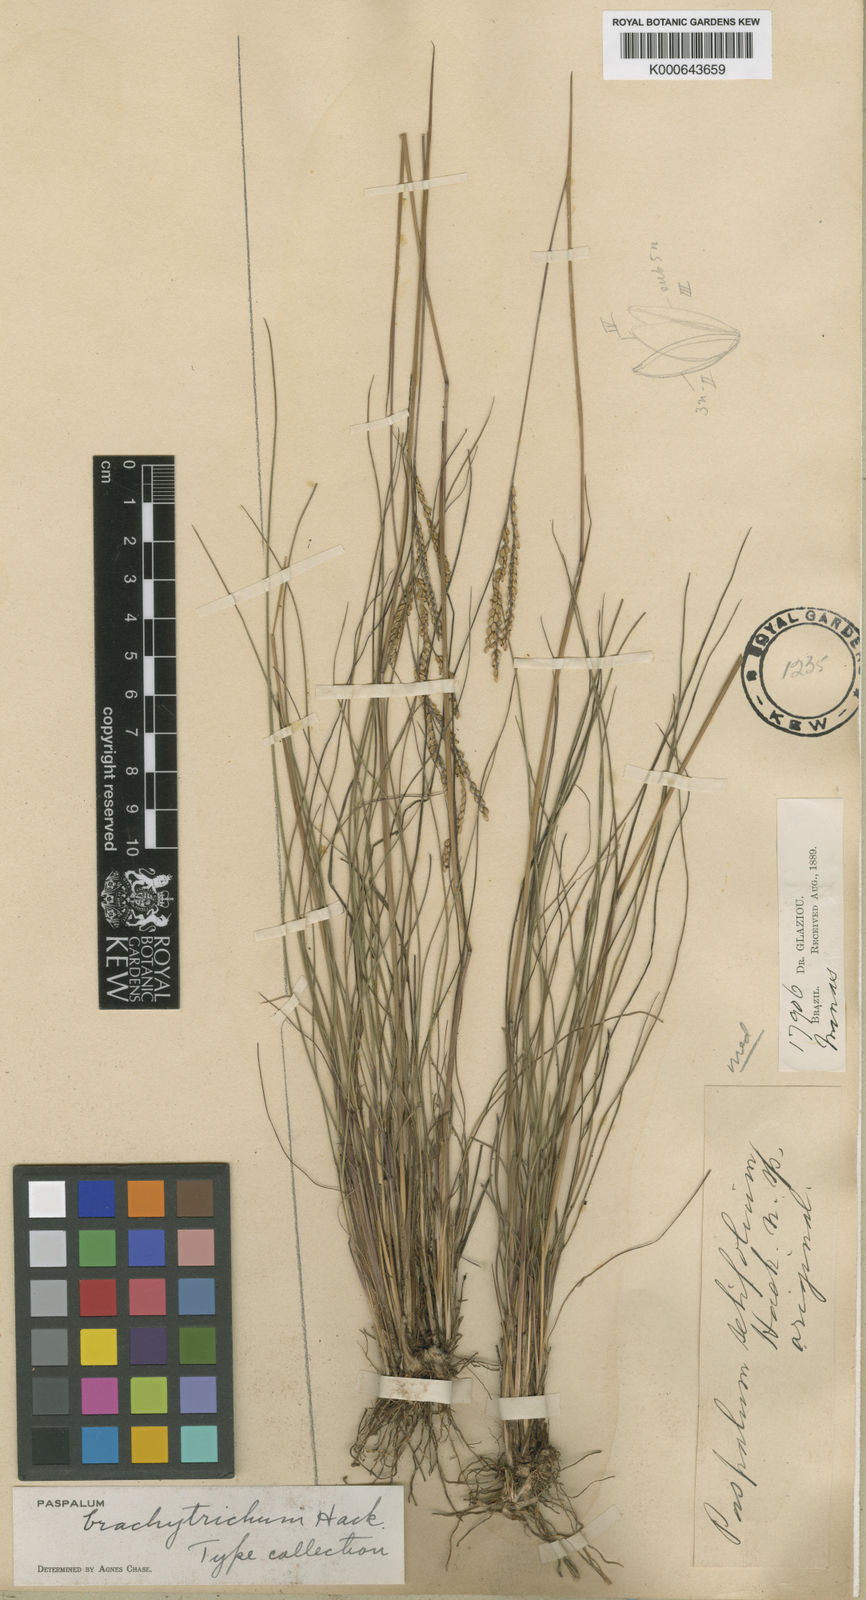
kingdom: Plantae
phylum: Tracheophyta
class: Liliopsida
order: Poales
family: Poaceae
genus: Paspalum
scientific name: Paspalum brachytrichum
